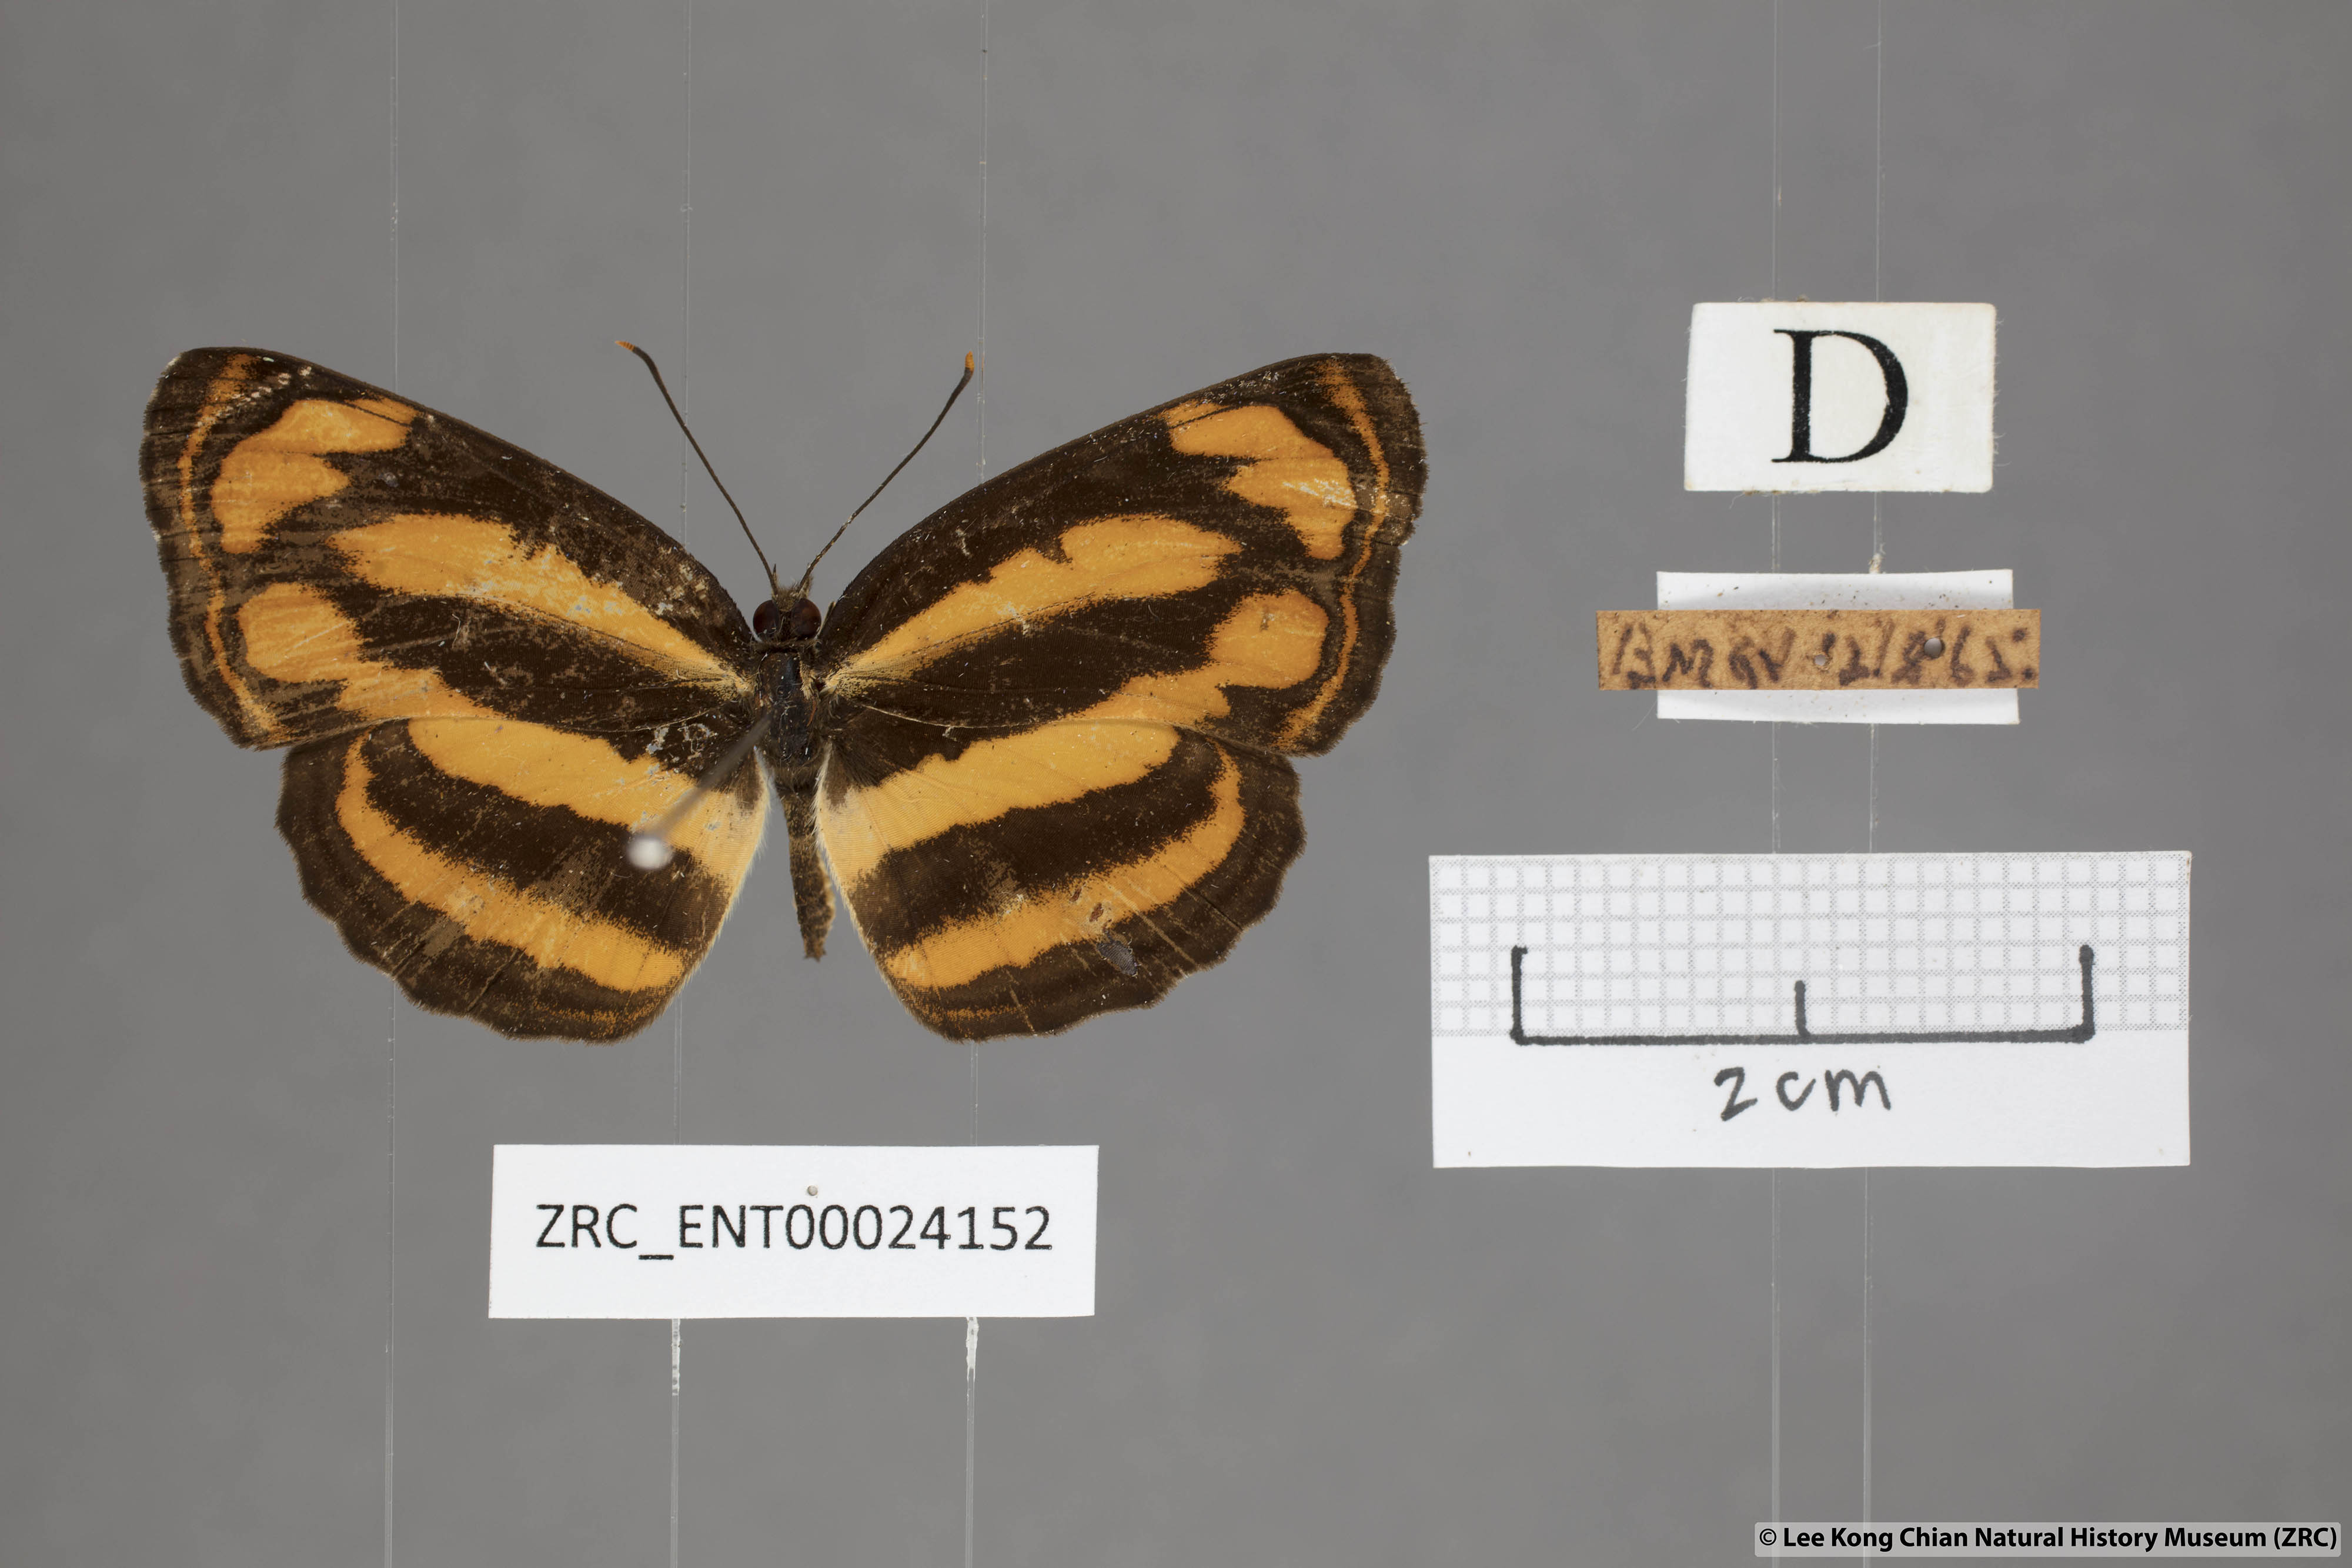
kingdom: Animalia
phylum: Arthropoda
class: Insecta
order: Lepidoptera
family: Nymphalidae
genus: Pantoporia
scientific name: Pantoporia sandaka
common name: Extra lascar
